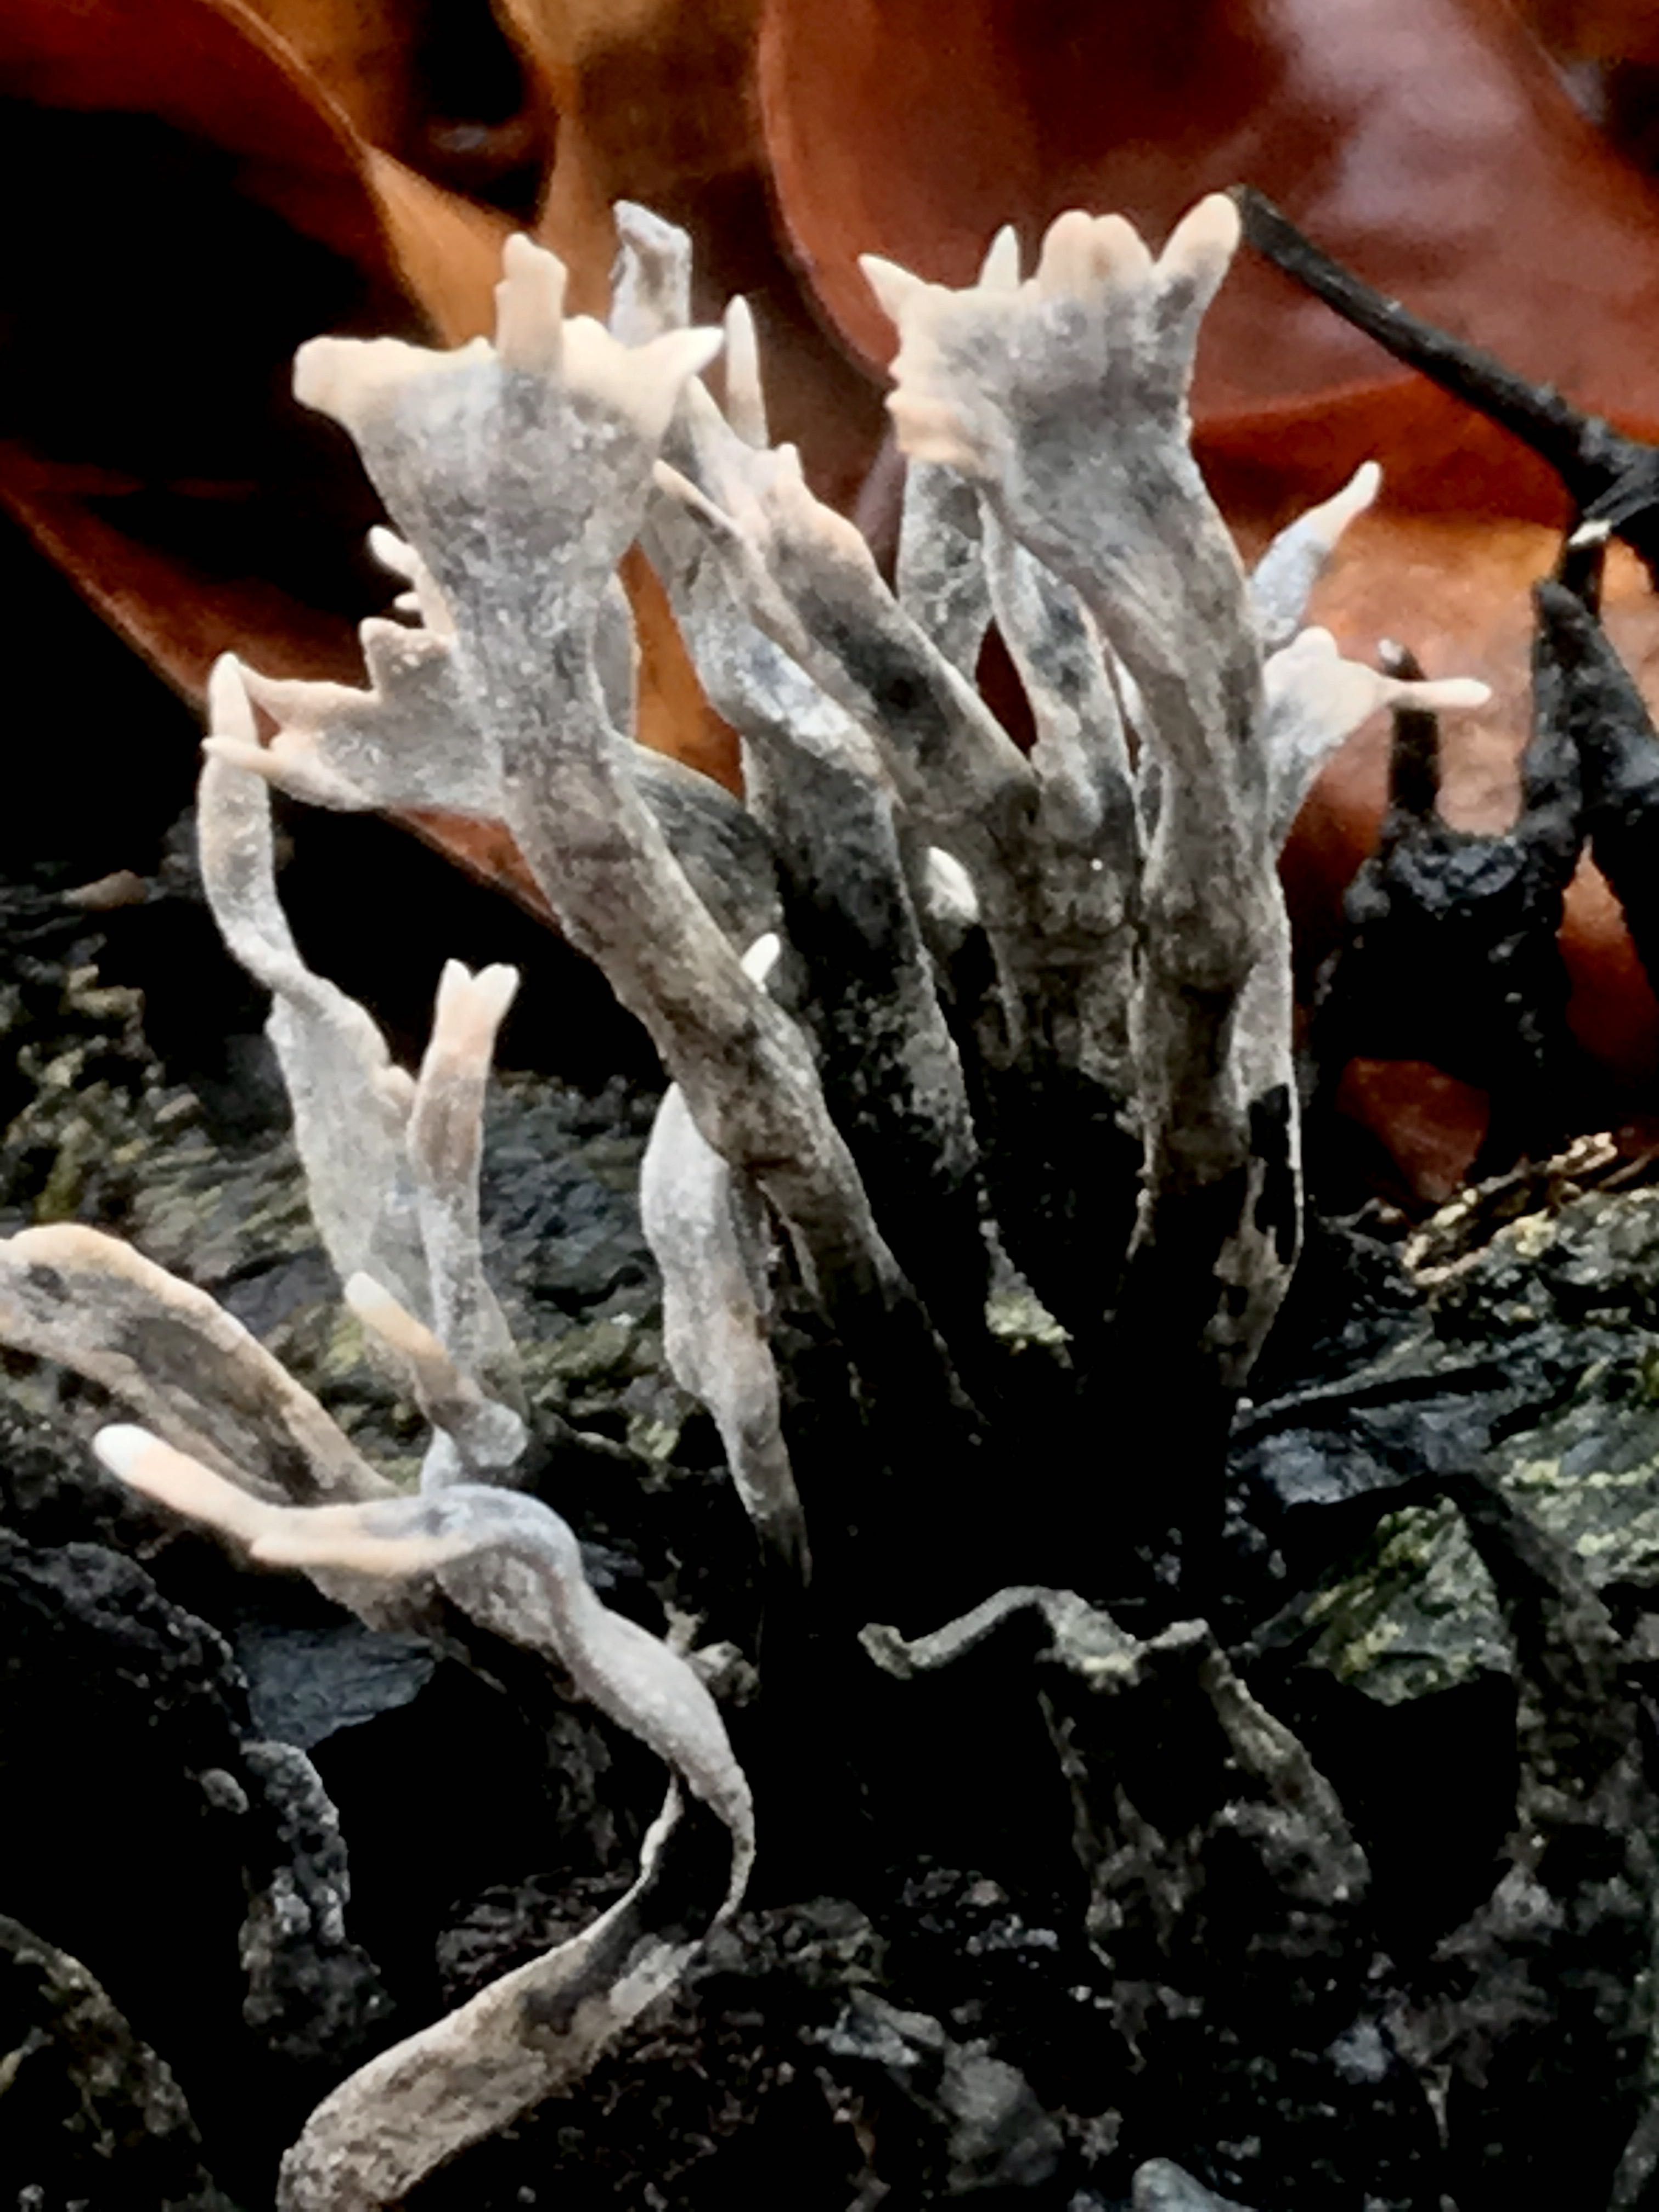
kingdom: Fungi
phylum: Ascomycota
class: Sordariomycetes
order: Xylariales
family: Xylariaceae
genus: Xylaria
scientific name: Xylaria hypoxylon
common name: grenet stødsvamp
